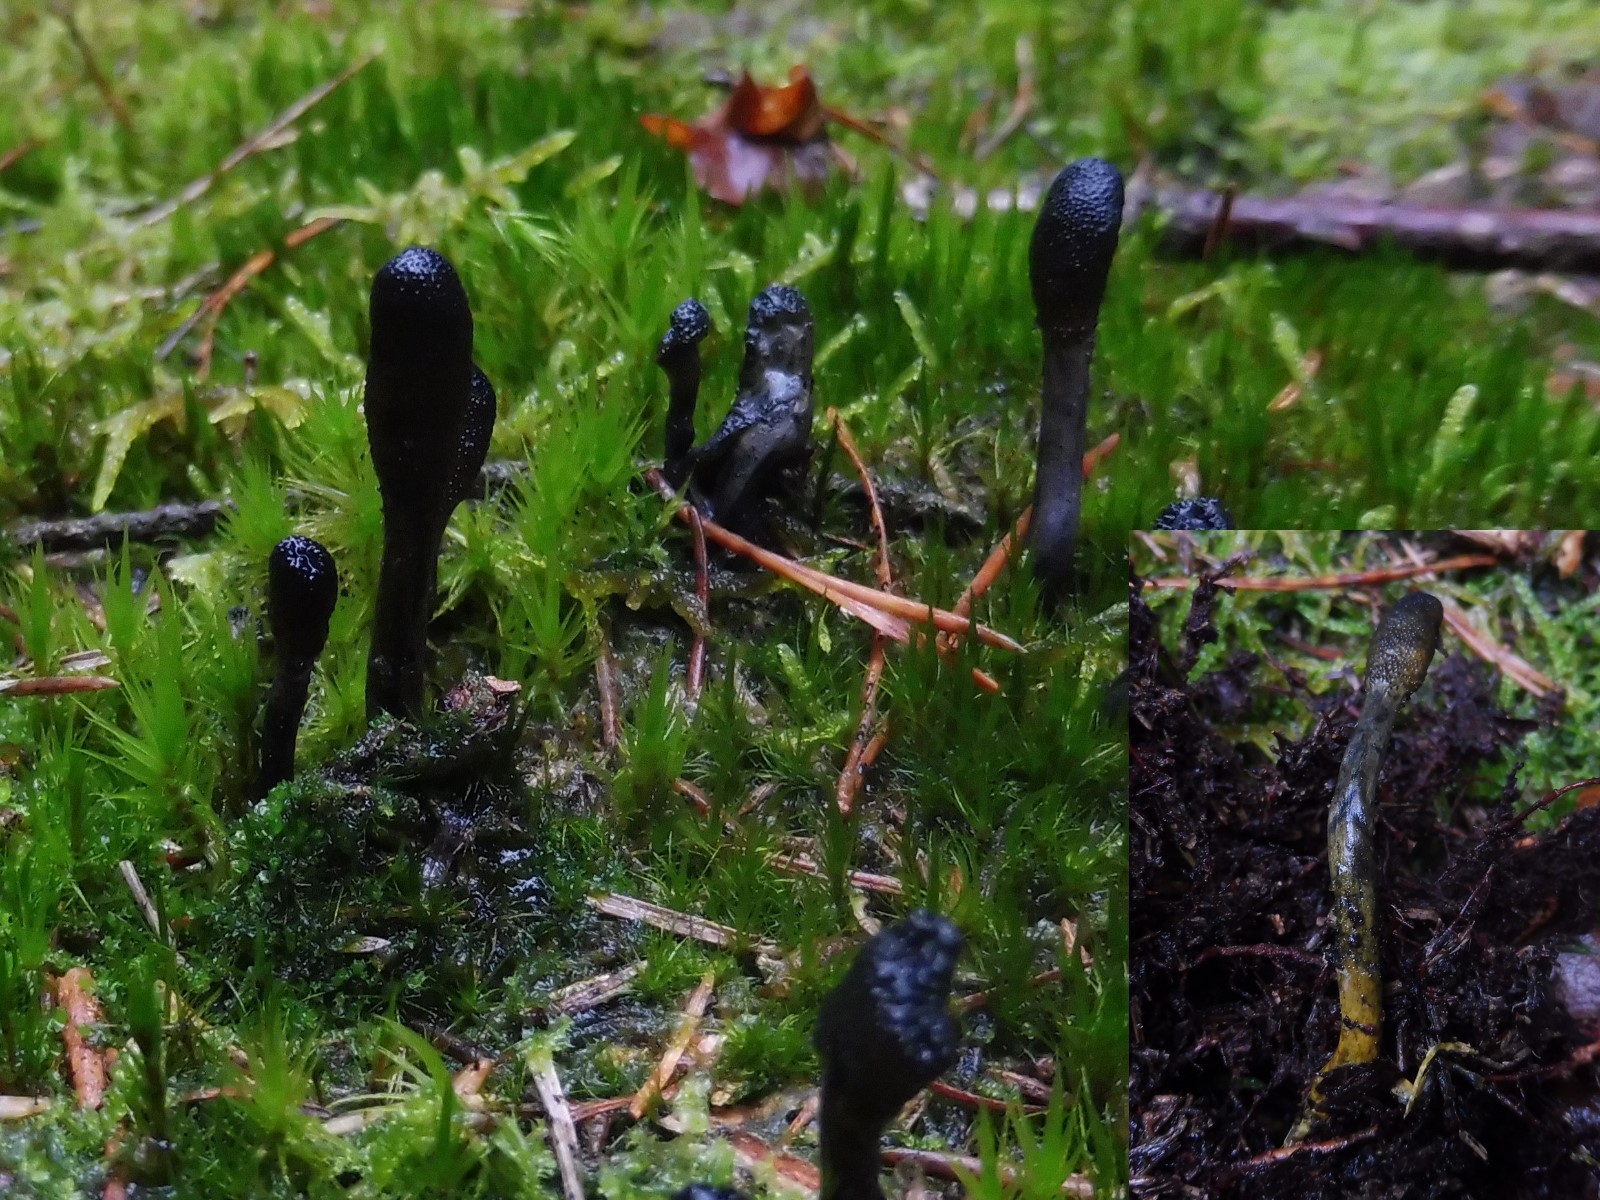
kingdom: Fungi
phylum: Ascomycota
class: Sordariomycetes
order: Hypocreales
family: Ophiocordycipitaceae
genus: Tolypocladium
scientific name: Tolypocladium ophioglossoides
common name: slank snyltekølle
